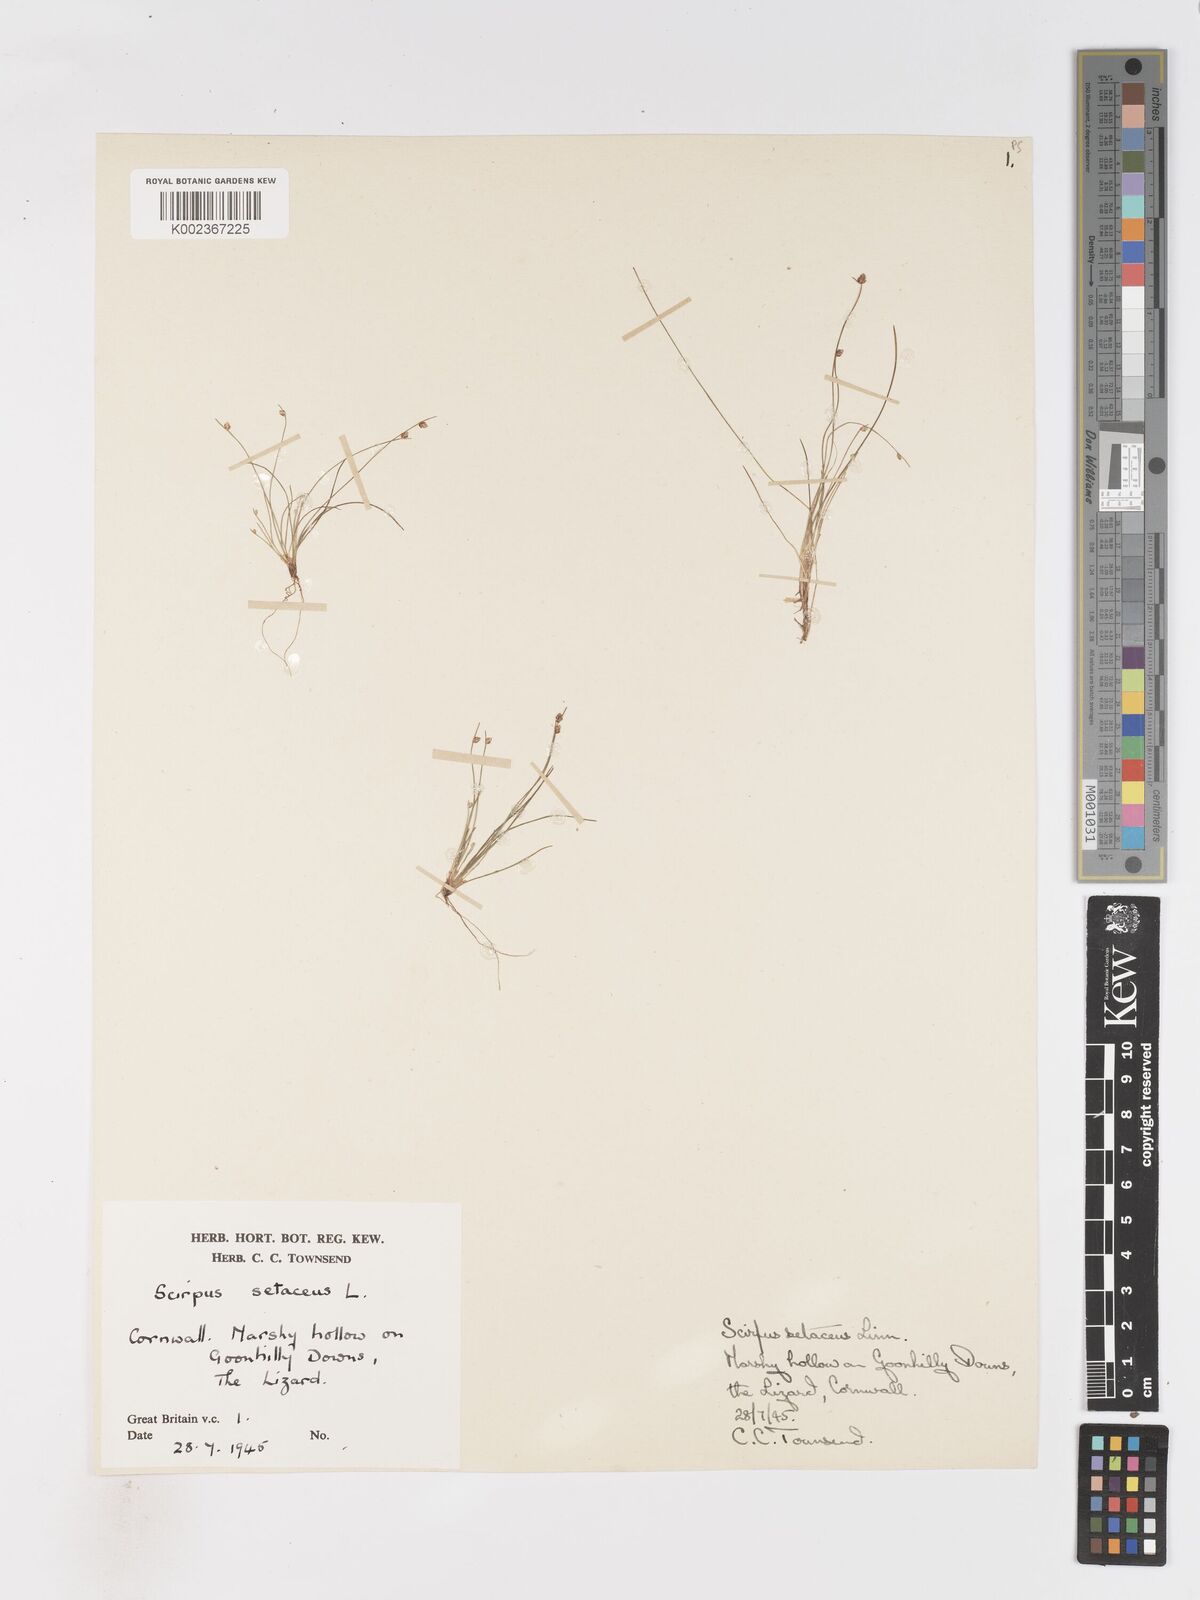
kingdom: Plantae
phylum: Tracheophyta
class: Liliopsida
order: Poales
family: Cyperaceae
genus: Isolepis
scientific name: Isolepis cernua
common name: Slender club-rush
